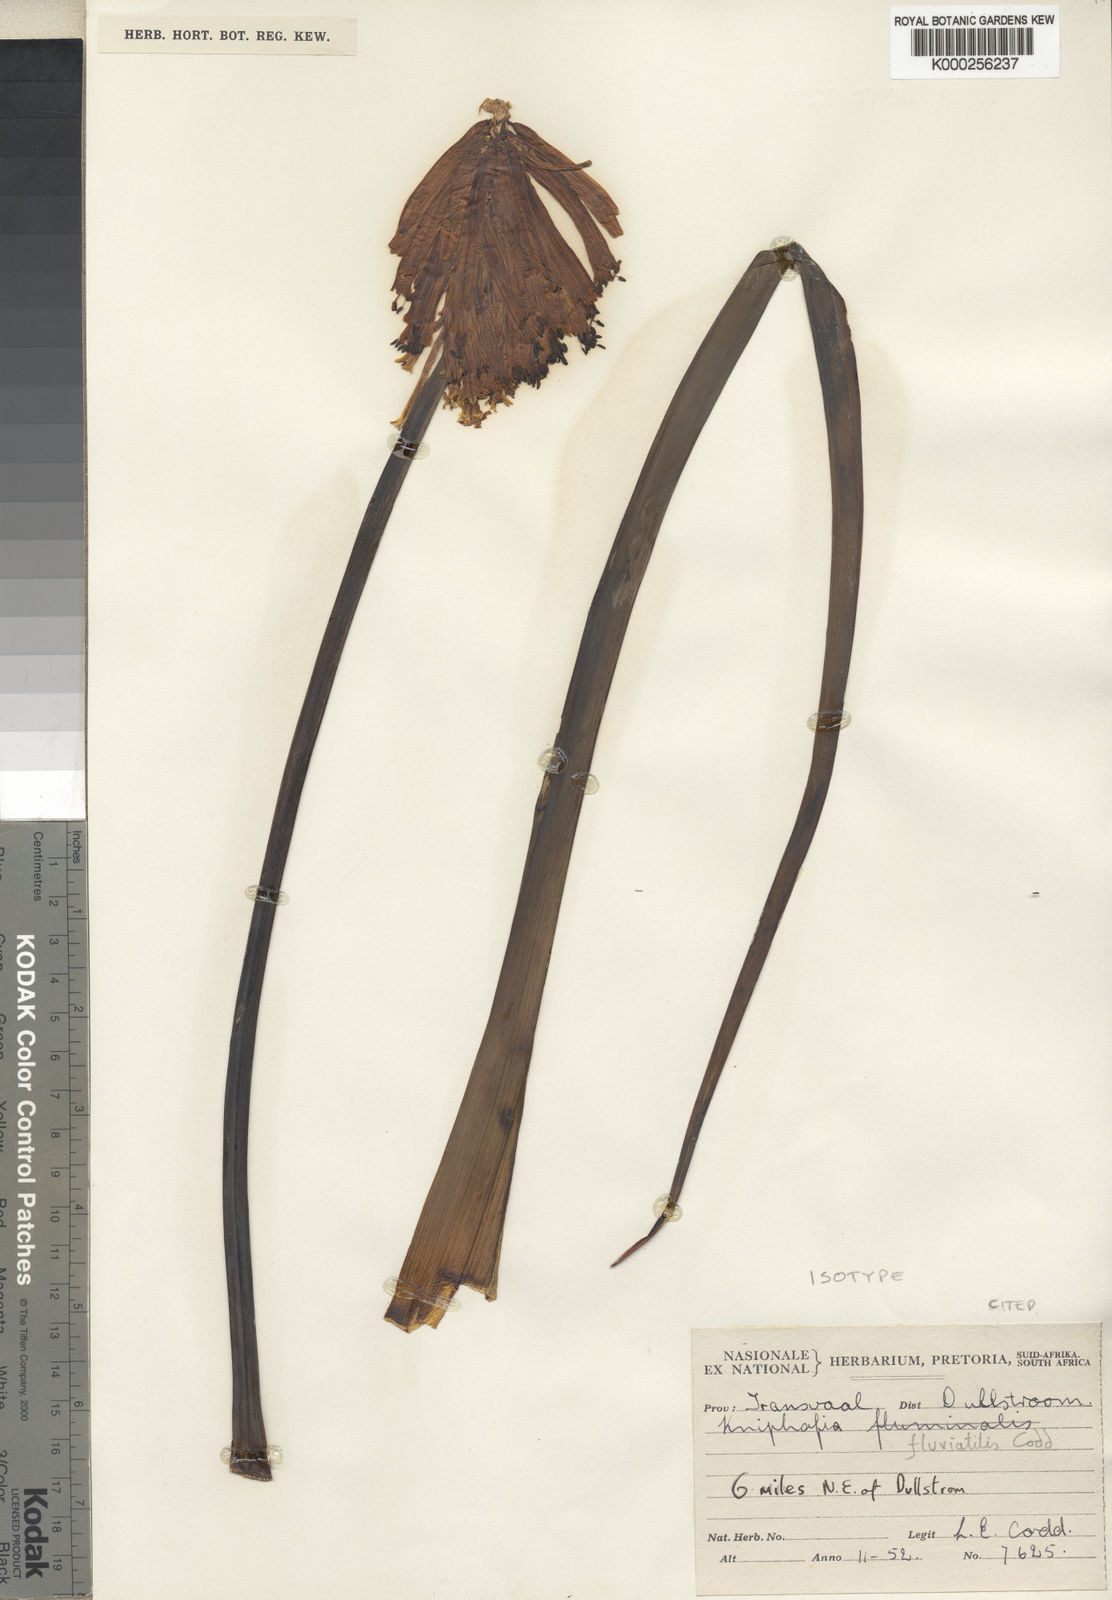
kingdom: Plantae
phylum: Tracheophyta
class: Liliopsida
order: Asparagales
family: Asphodelaceae
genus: Kniphofia
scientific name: Kniphofia fluviatilis
